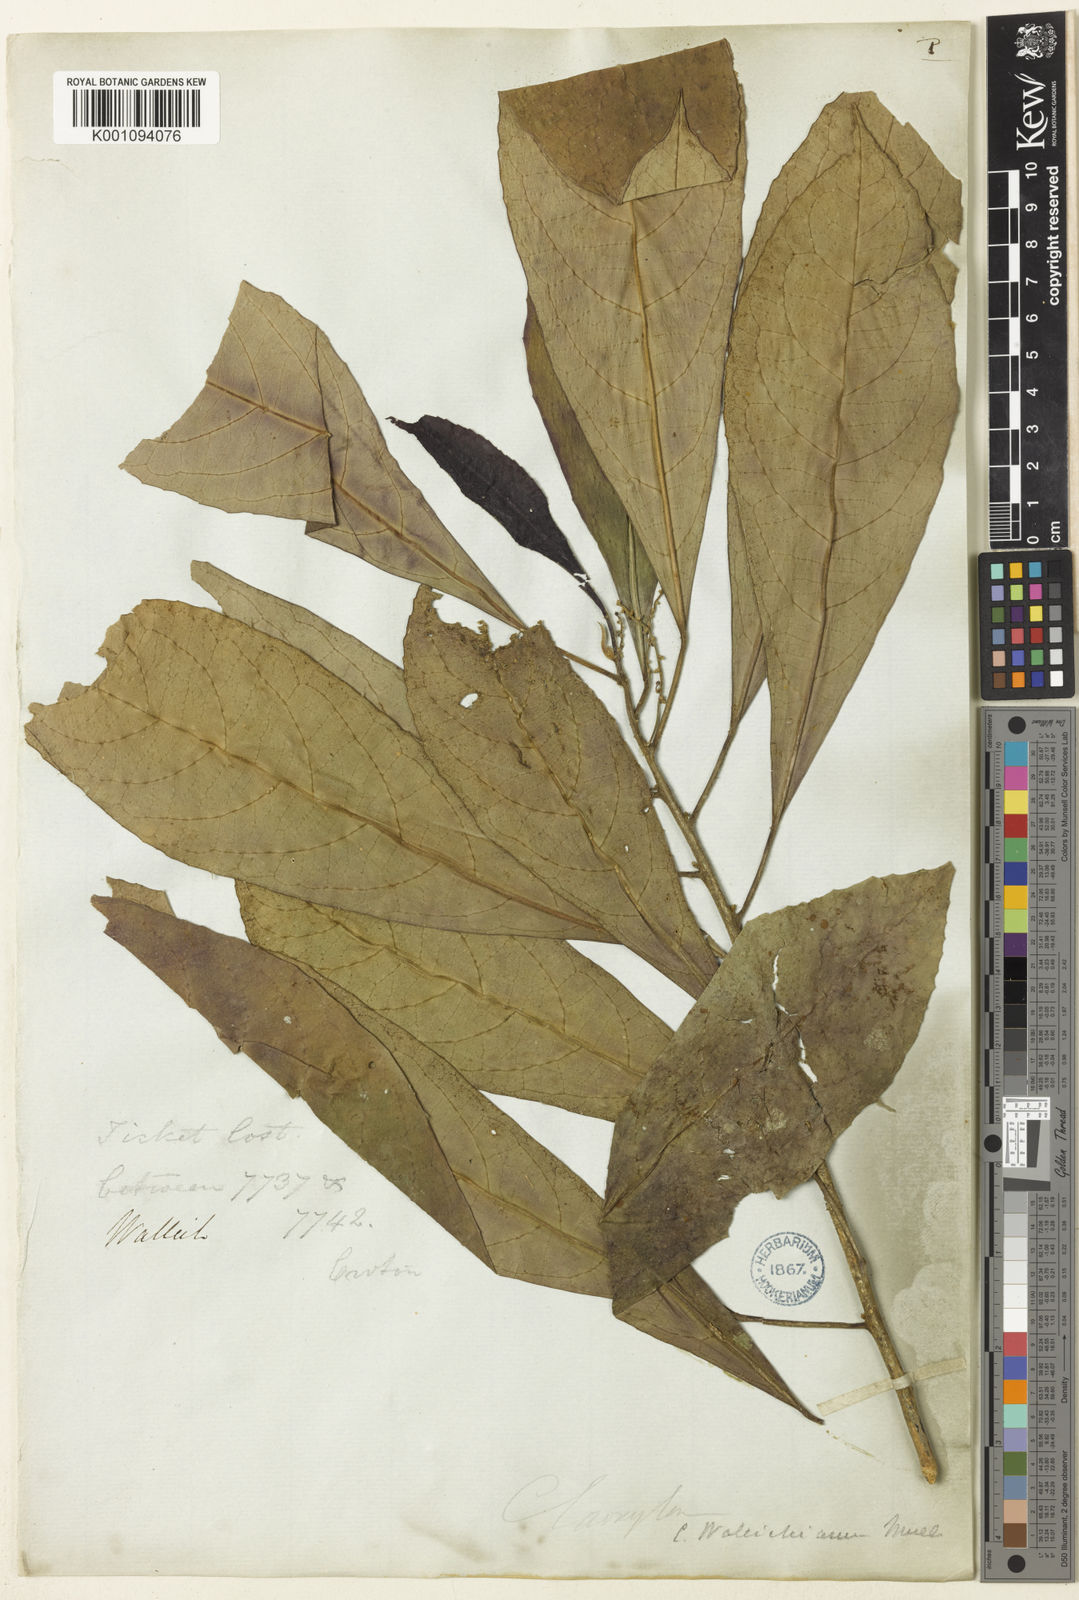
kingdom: Plantae
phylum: Tracheophyta
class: Magnoliopsida
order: Malpighiales
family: Euphorbiaceae
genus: Claoxylon
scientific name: Claoxylon
